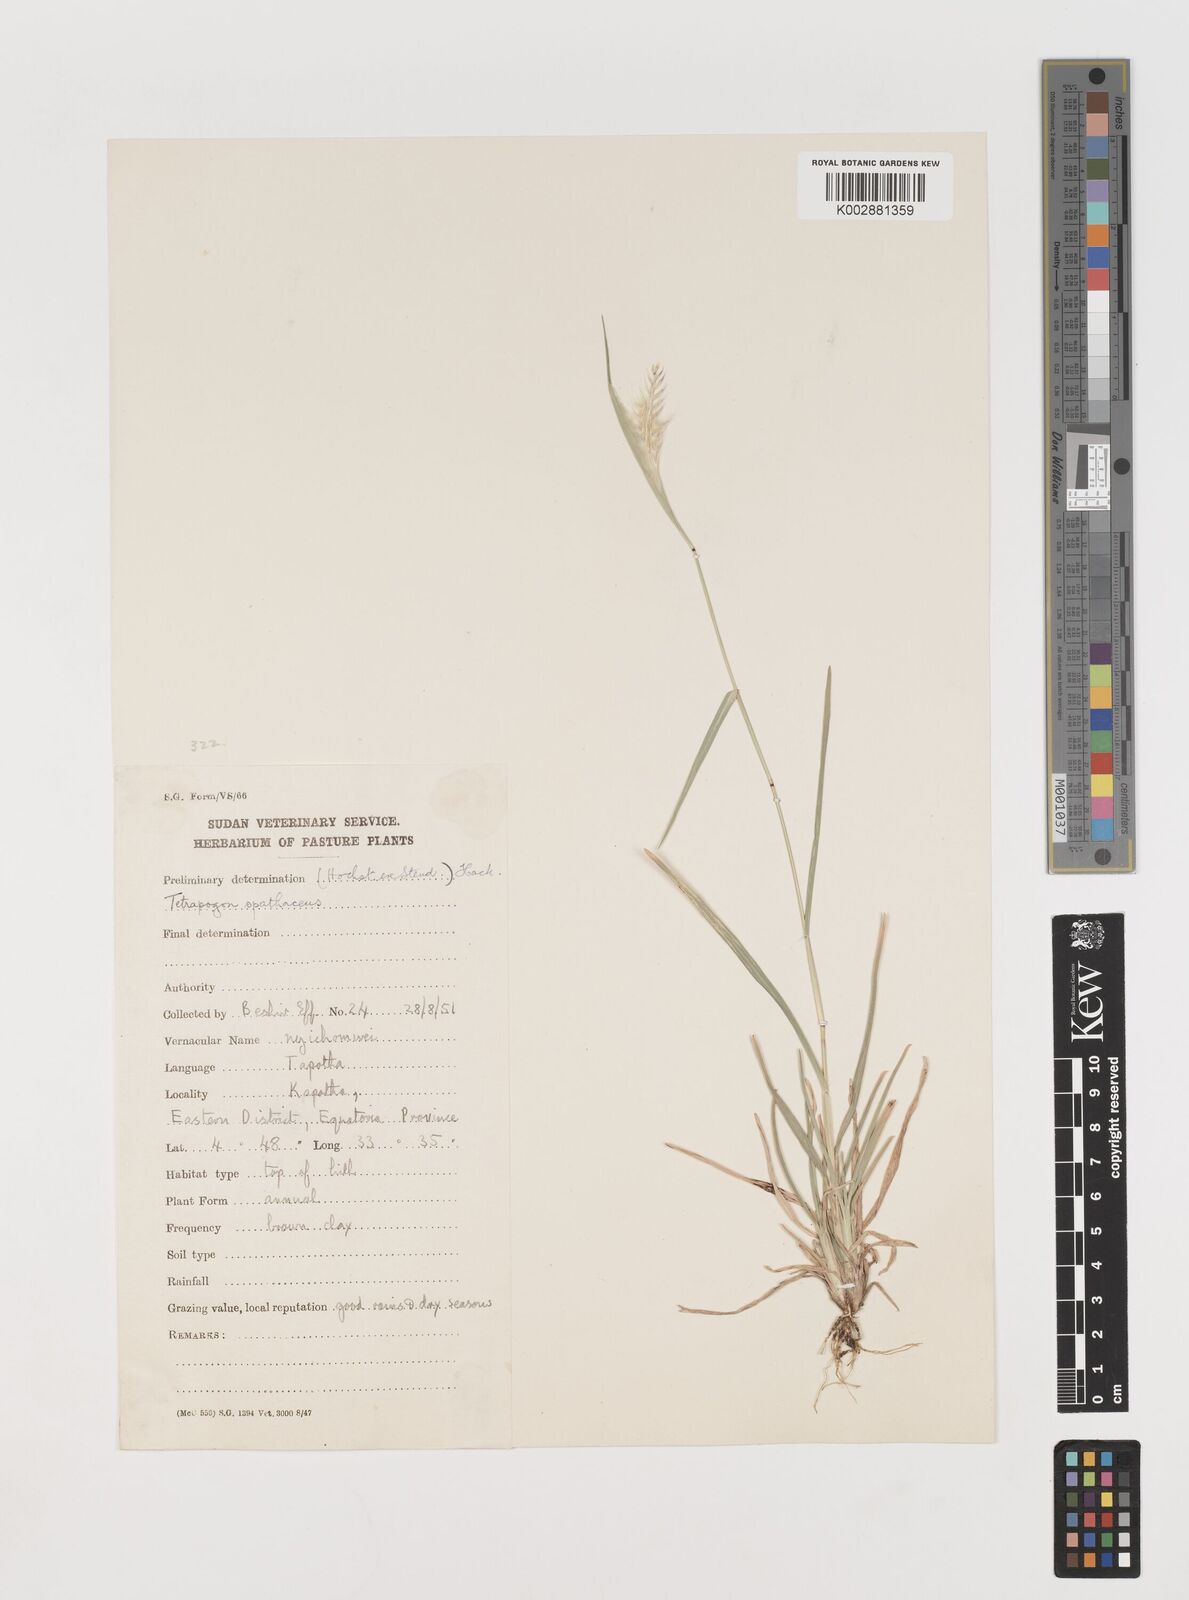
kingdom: Plantae
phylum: Tracheophyta
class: Liliopsida
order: Poales
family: Poaceae
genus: Tetrapogon
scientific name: Tetrapogon cenchriformis
